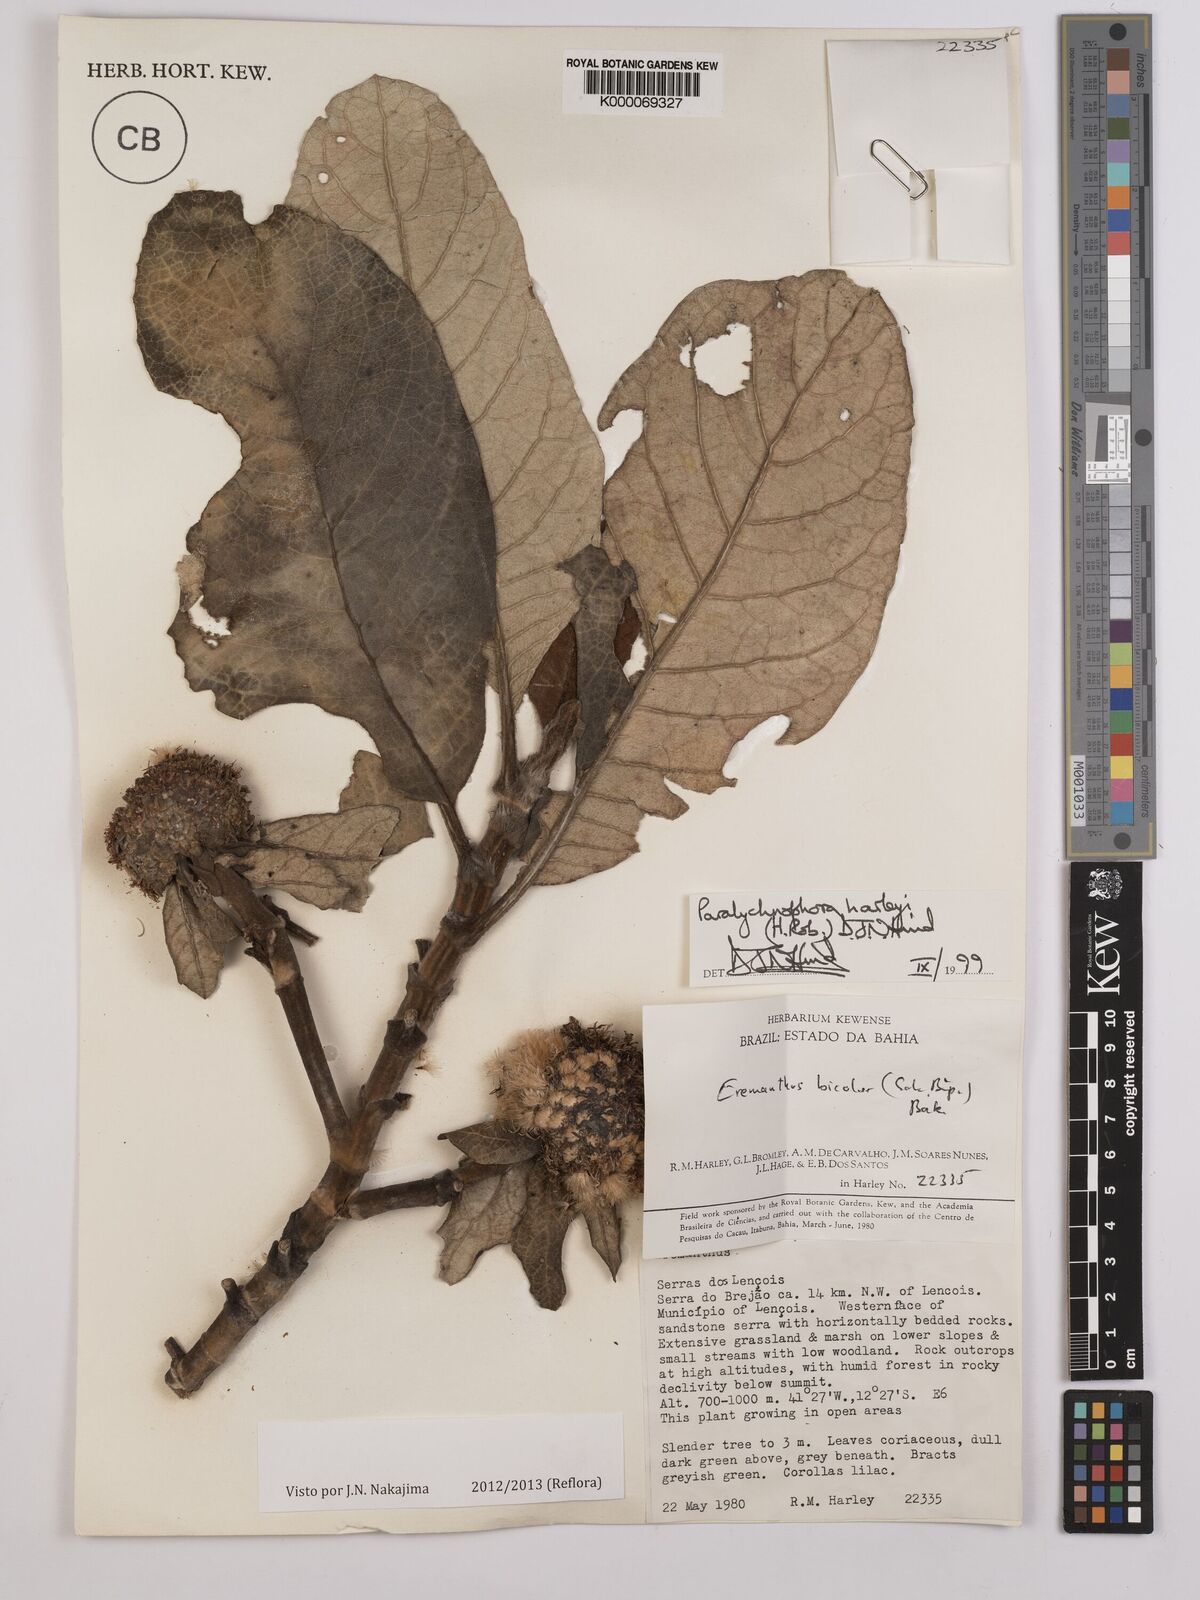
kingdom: Plantae
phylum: Tracheophyta
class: Magnoliopsida
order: Asterales
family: Asteraceae
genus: Paralychnophora
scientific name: Paralychnophora harleyi
